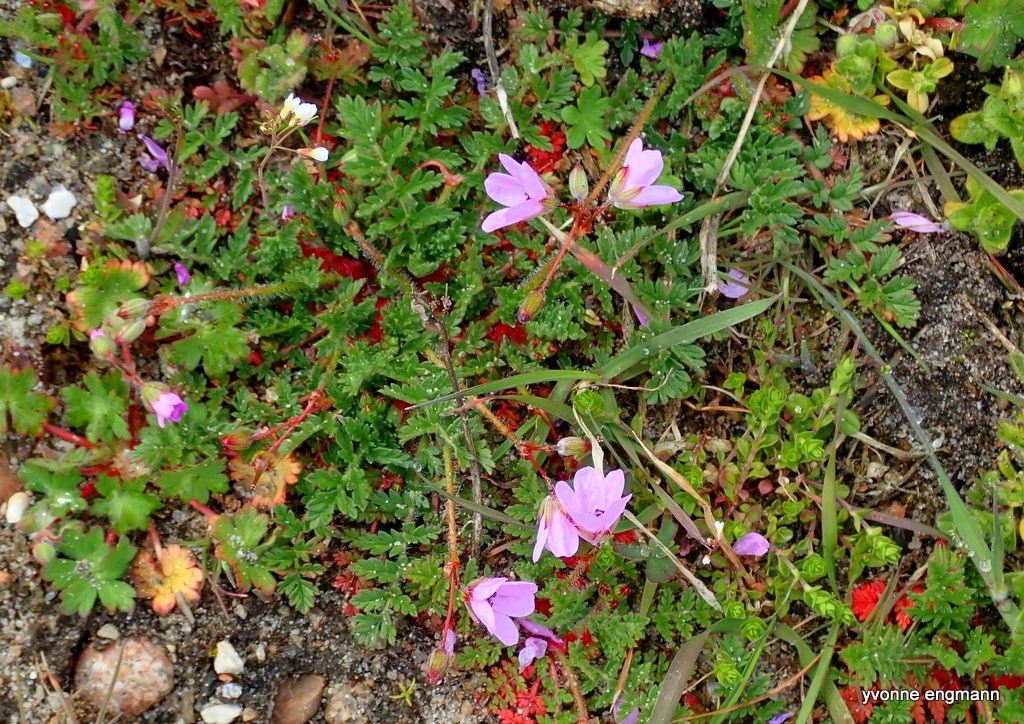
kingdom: Plantae
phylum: Tracheophyta
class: Magnoliopsida
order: Geraniales
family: Geraniaceae
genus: Erodium
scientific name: Erodium cicutarium
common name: Hejrenæb
